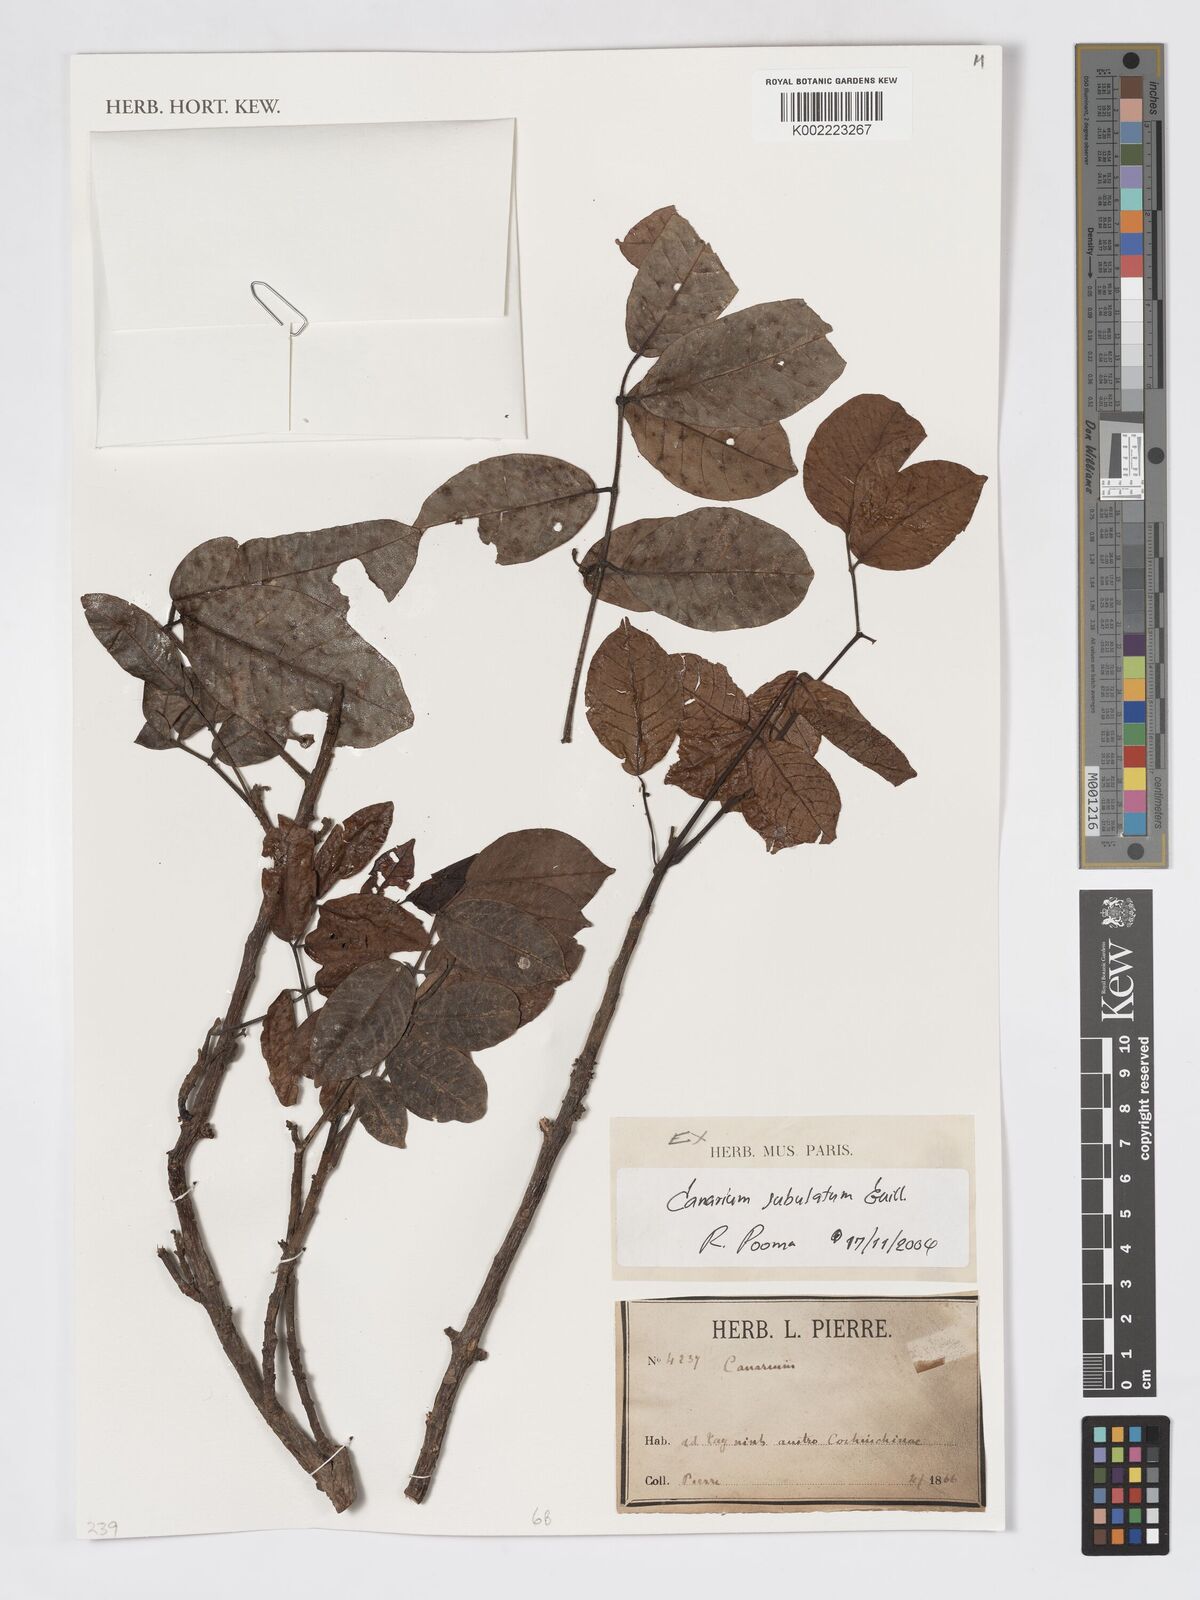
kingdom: Plantae
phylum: Tracheophyta
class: Magnoliopsida
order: Sapindales
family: Burseraceae
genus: Canarium
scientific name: Canarium subulatum
